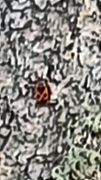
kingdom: Animalia
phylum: Arthropoda
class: Insecta
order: Hemiptera
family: Pyrrhocoridae
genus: Pyrrhocoris
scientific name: Pyrrhocoris apterus
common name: Ildtæge
